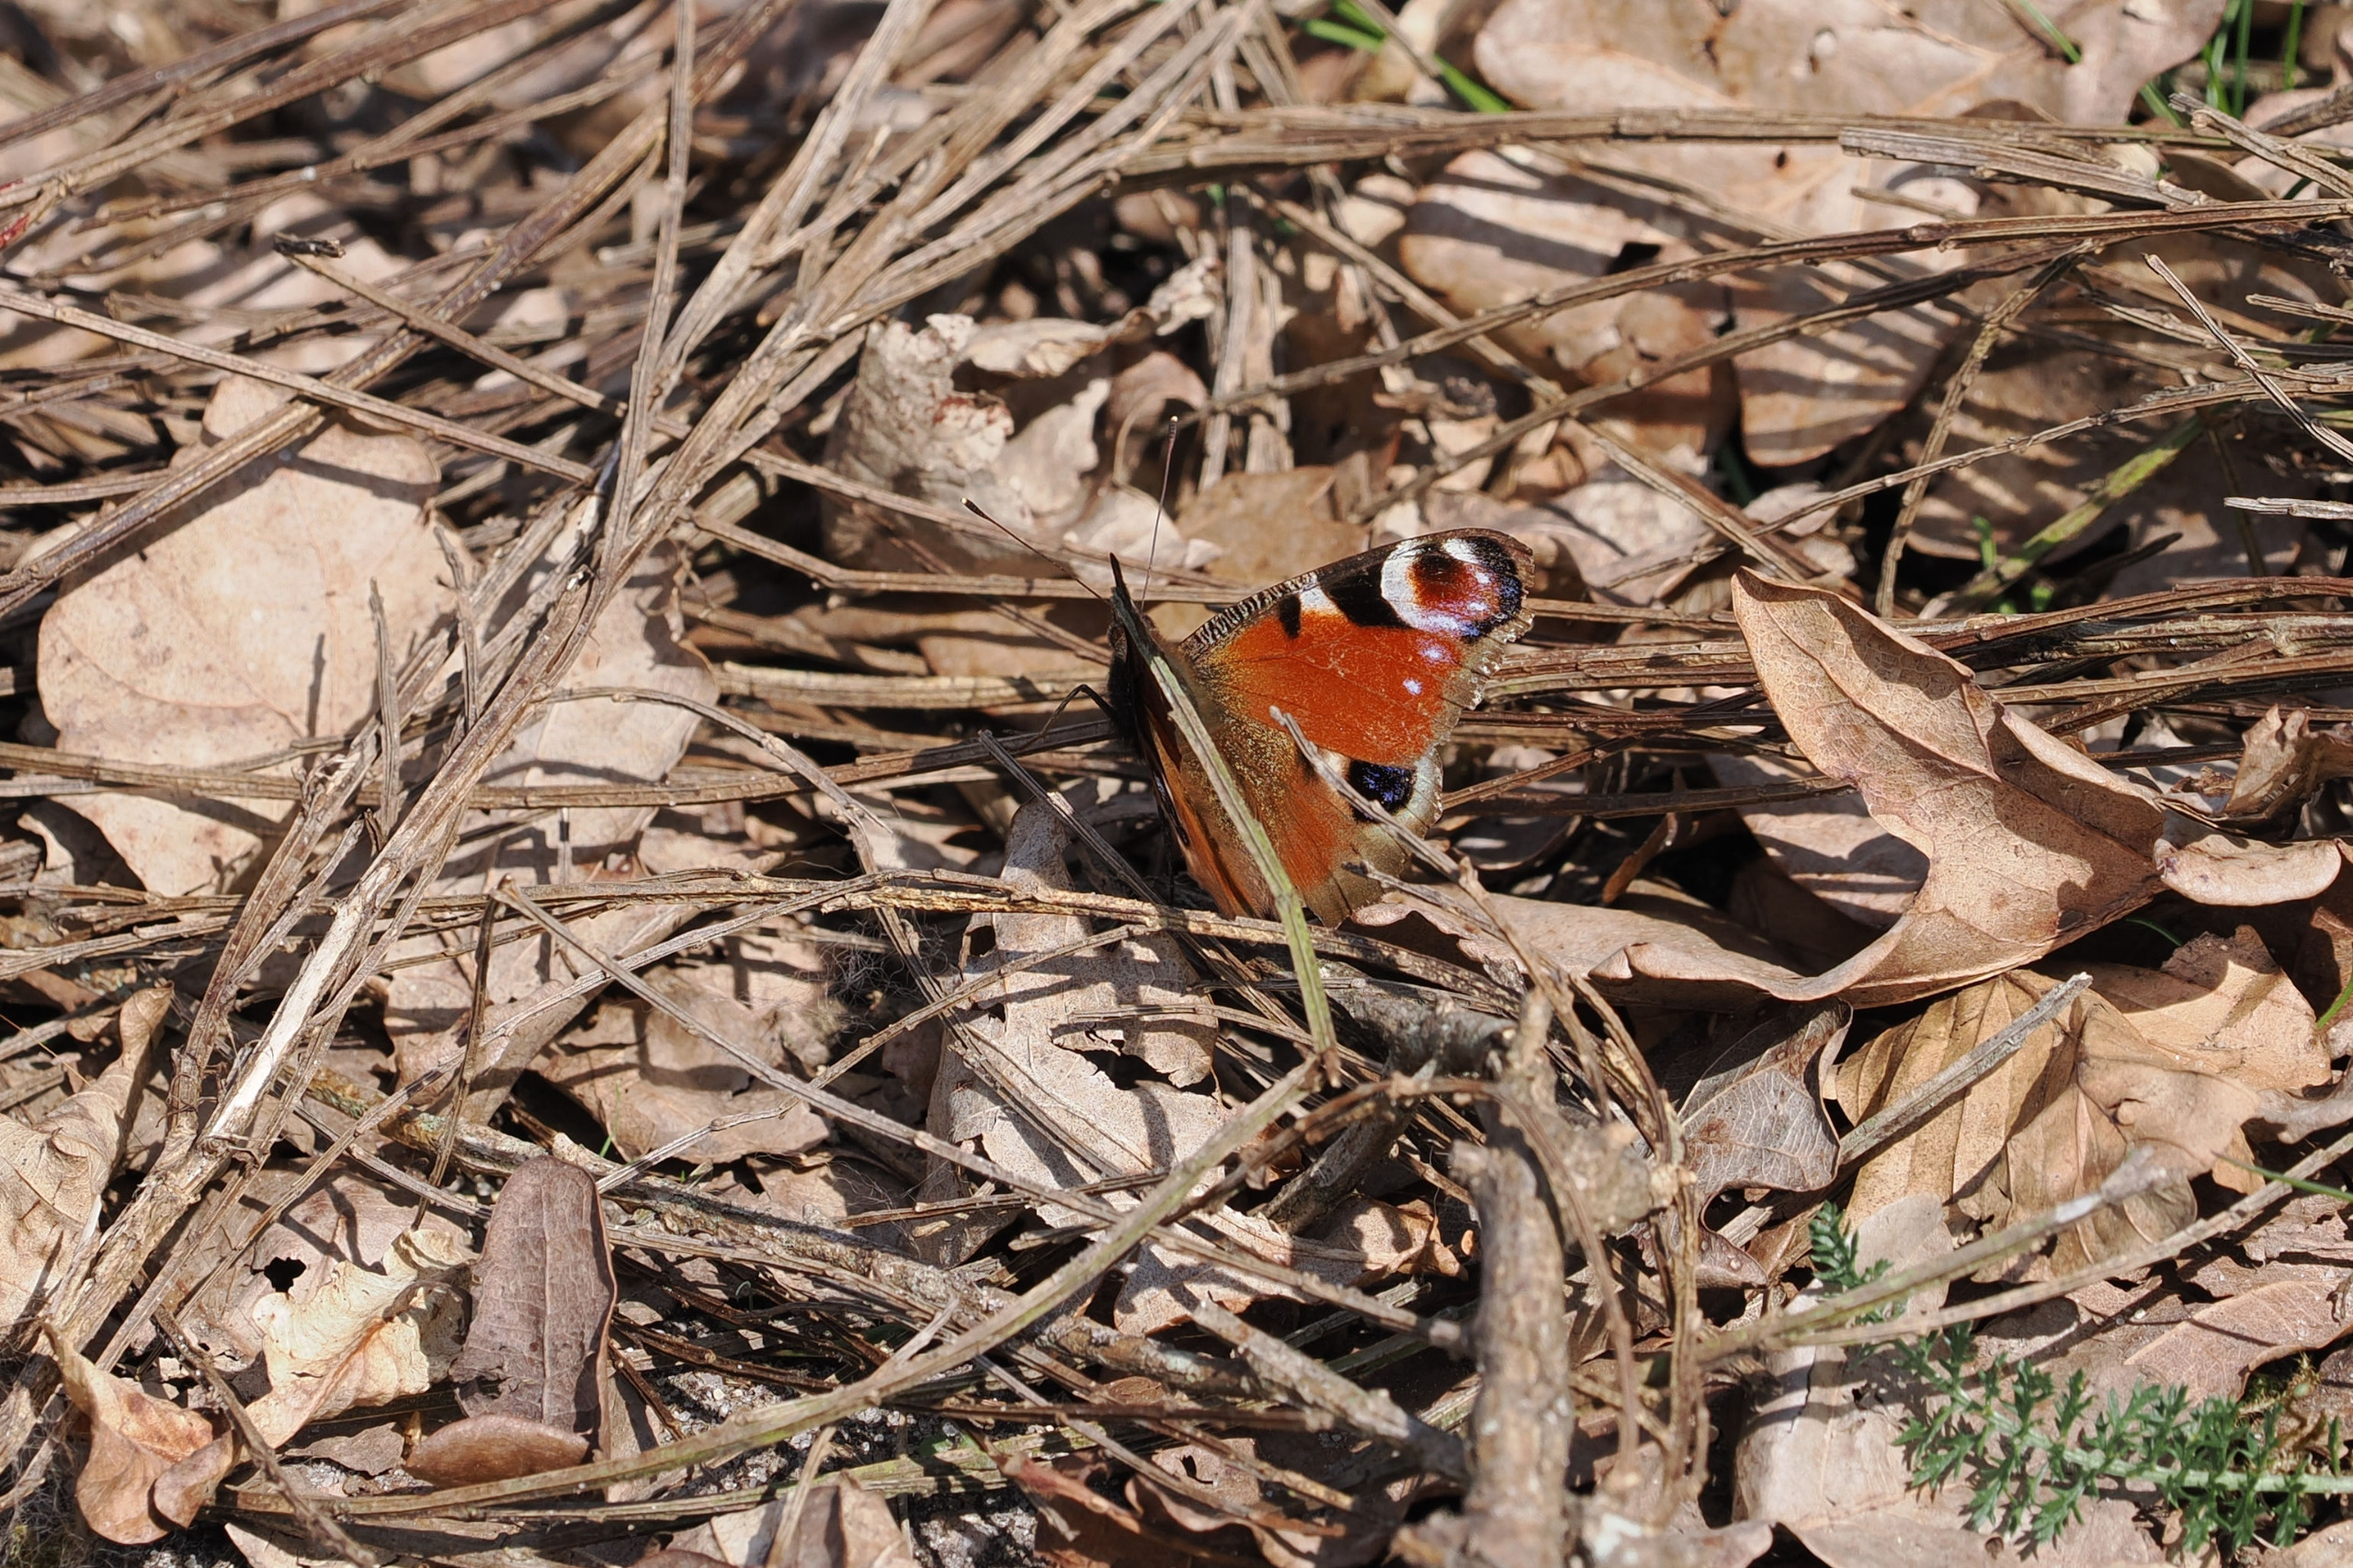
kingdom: Animalia
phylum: Arthropoda
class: Insecta
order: Lepidoptera
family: Nymphalidae
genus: Aglais
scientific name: Aglais io
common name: Dagpåfugleøje
